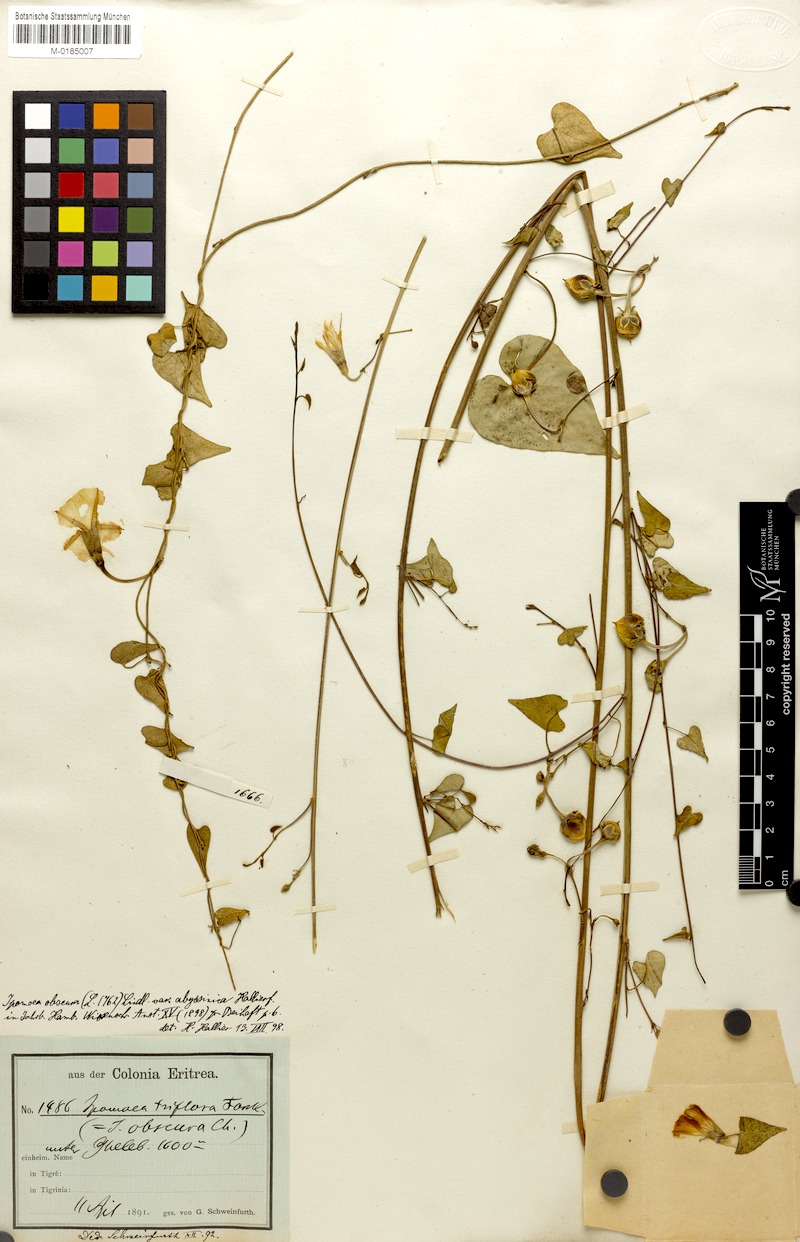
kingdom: Plantae
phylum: Tracheophyta
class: Magnoliopsida
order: Solanales
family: Convolvulaceae
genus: Ipomoea
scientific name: Ipomoea obscura
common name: Obscure morning-glory
